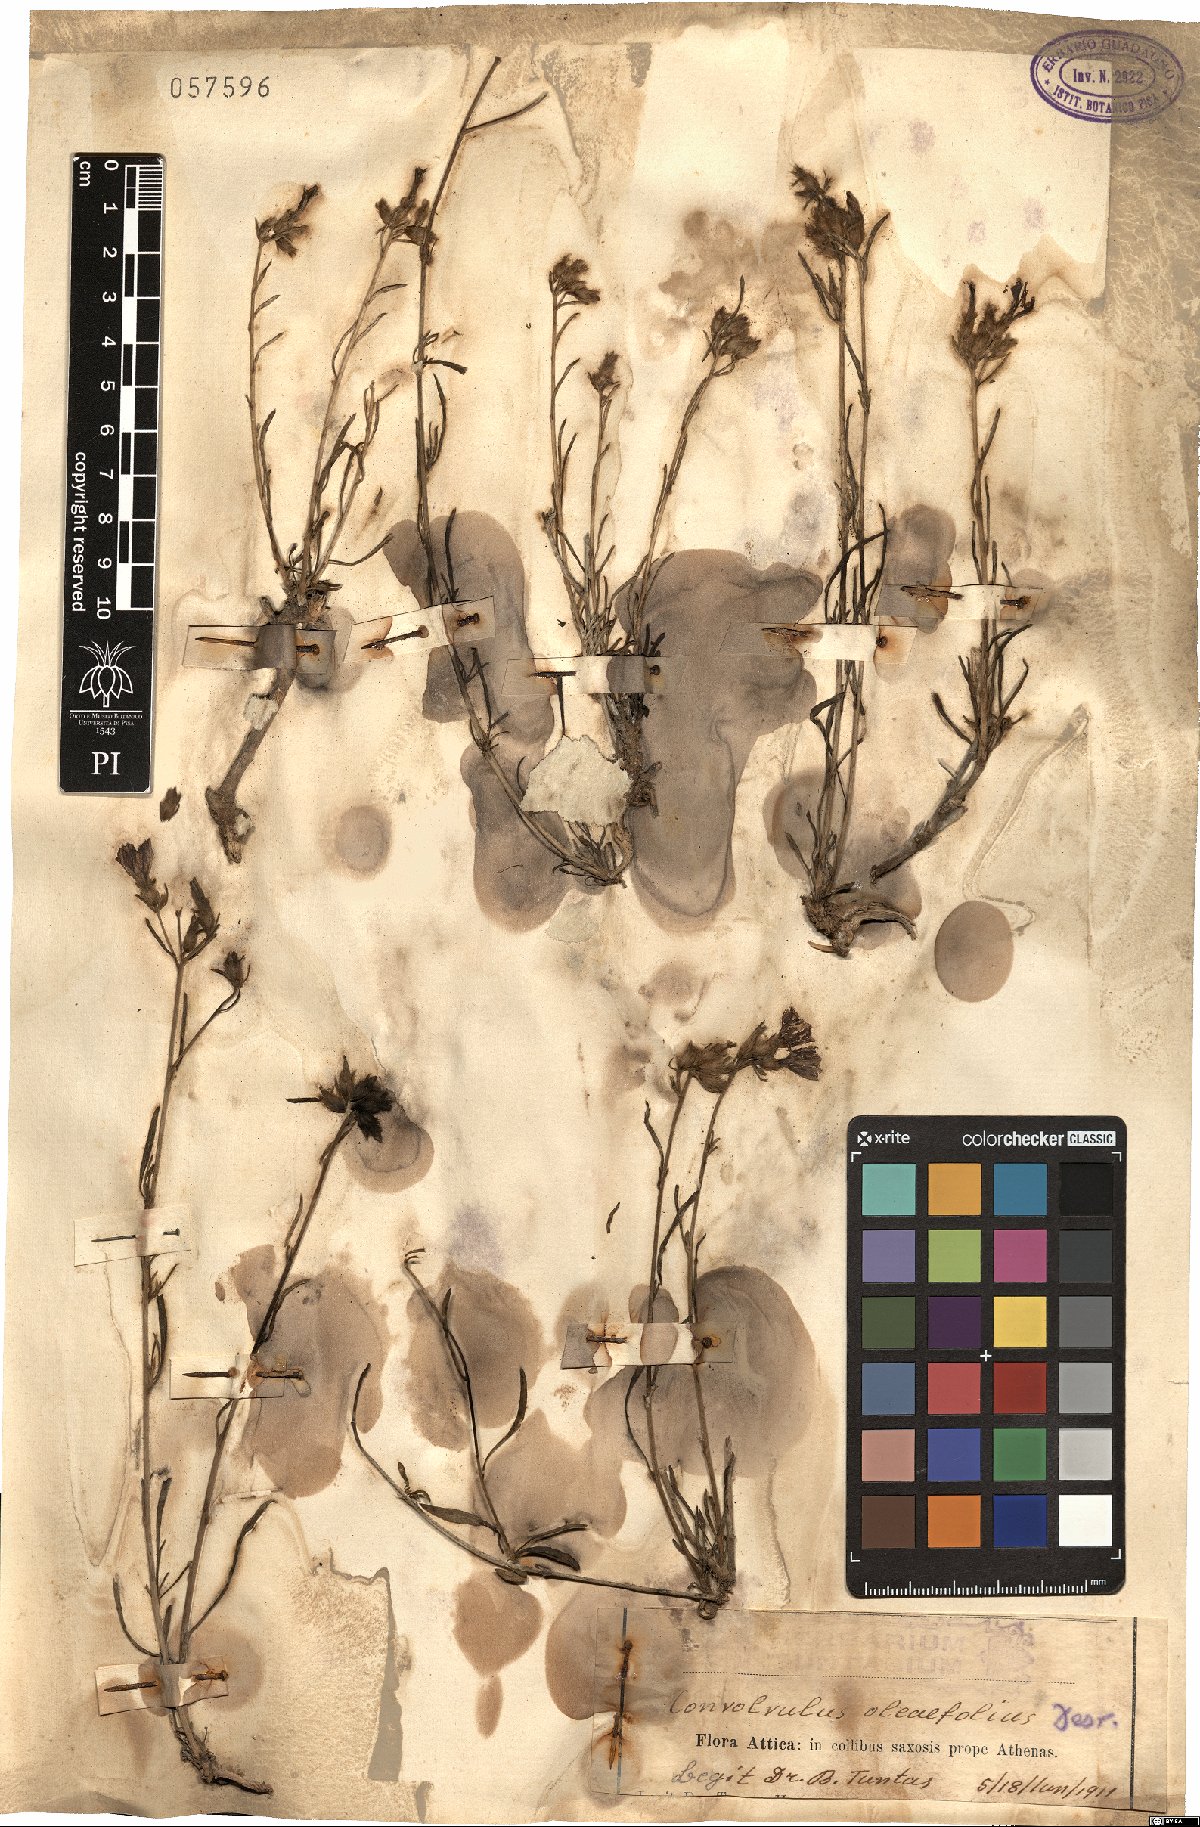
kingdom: Plantae
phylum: Tracheophyta
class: Magnoliopsida
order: Solanales
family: Convolvulaceae
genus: Convolvulus
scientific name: Convolvulus oleifolius
